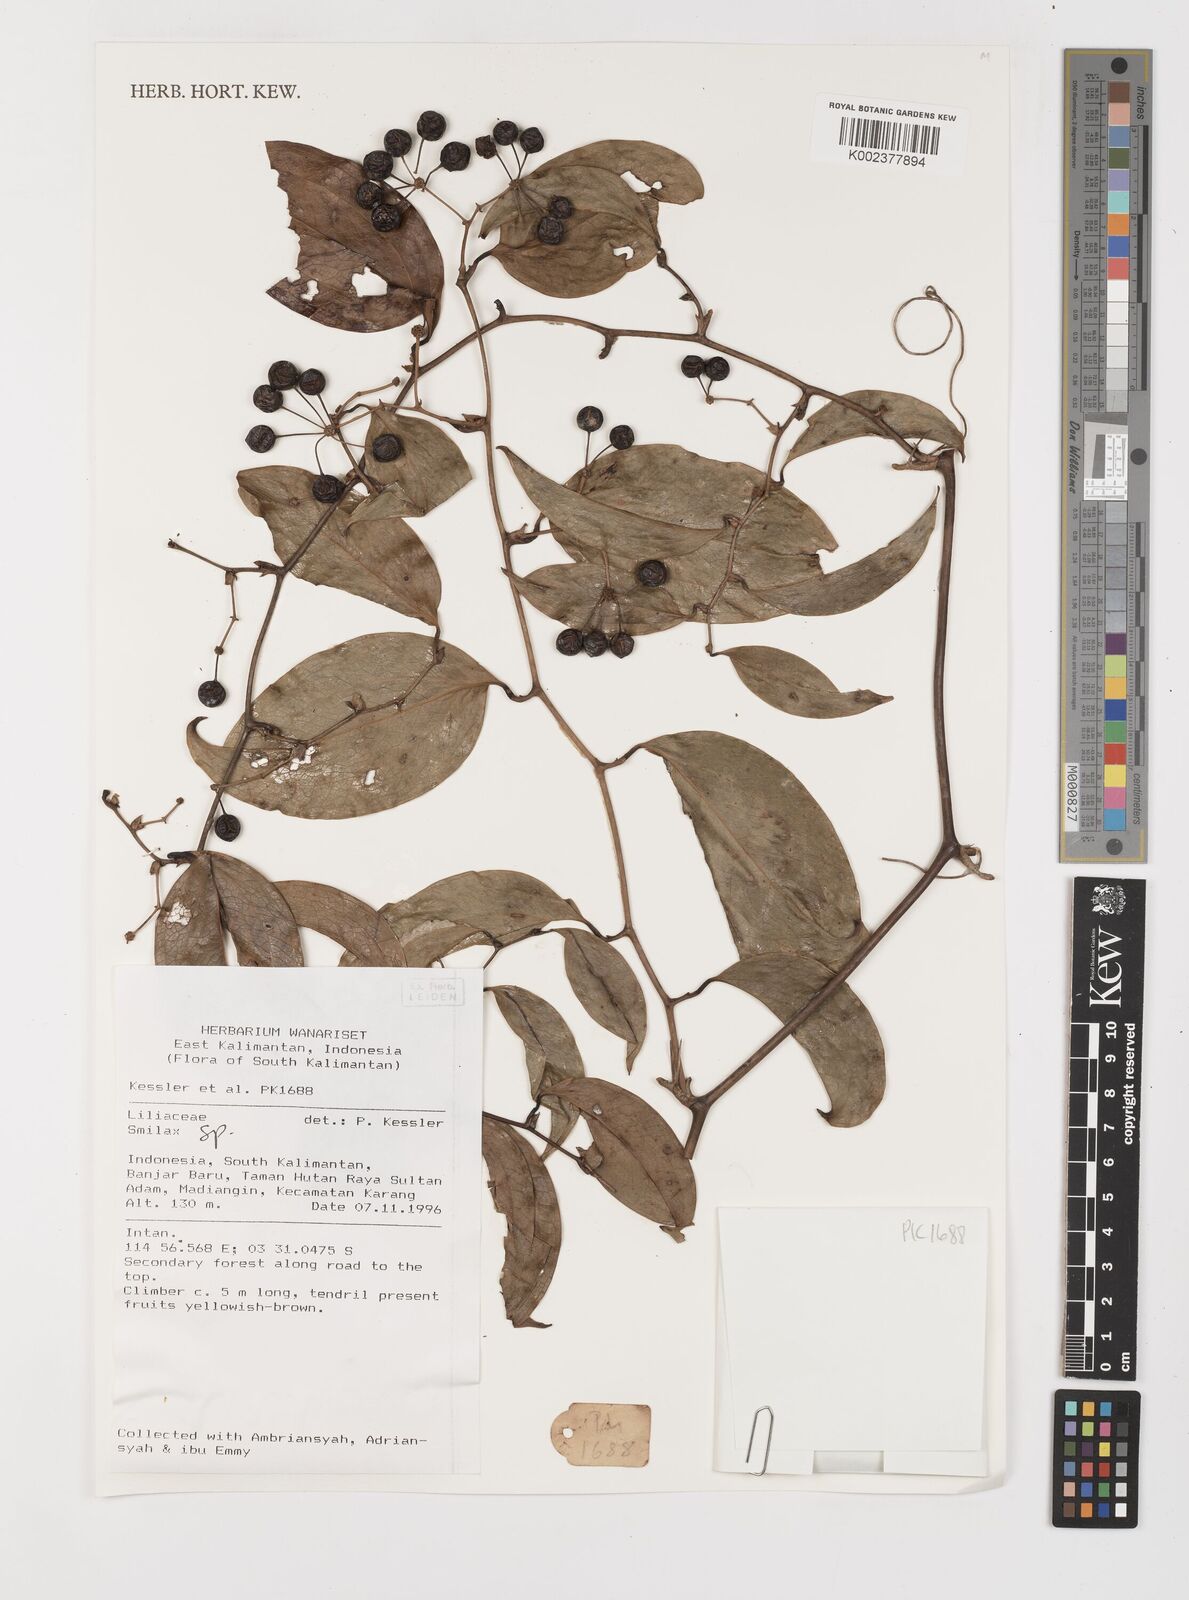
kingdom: Plantae
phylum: Tracheophyta
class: Liliopsida
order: Liliales
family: Smilacaceae
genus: Smilax
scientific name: Smilax
